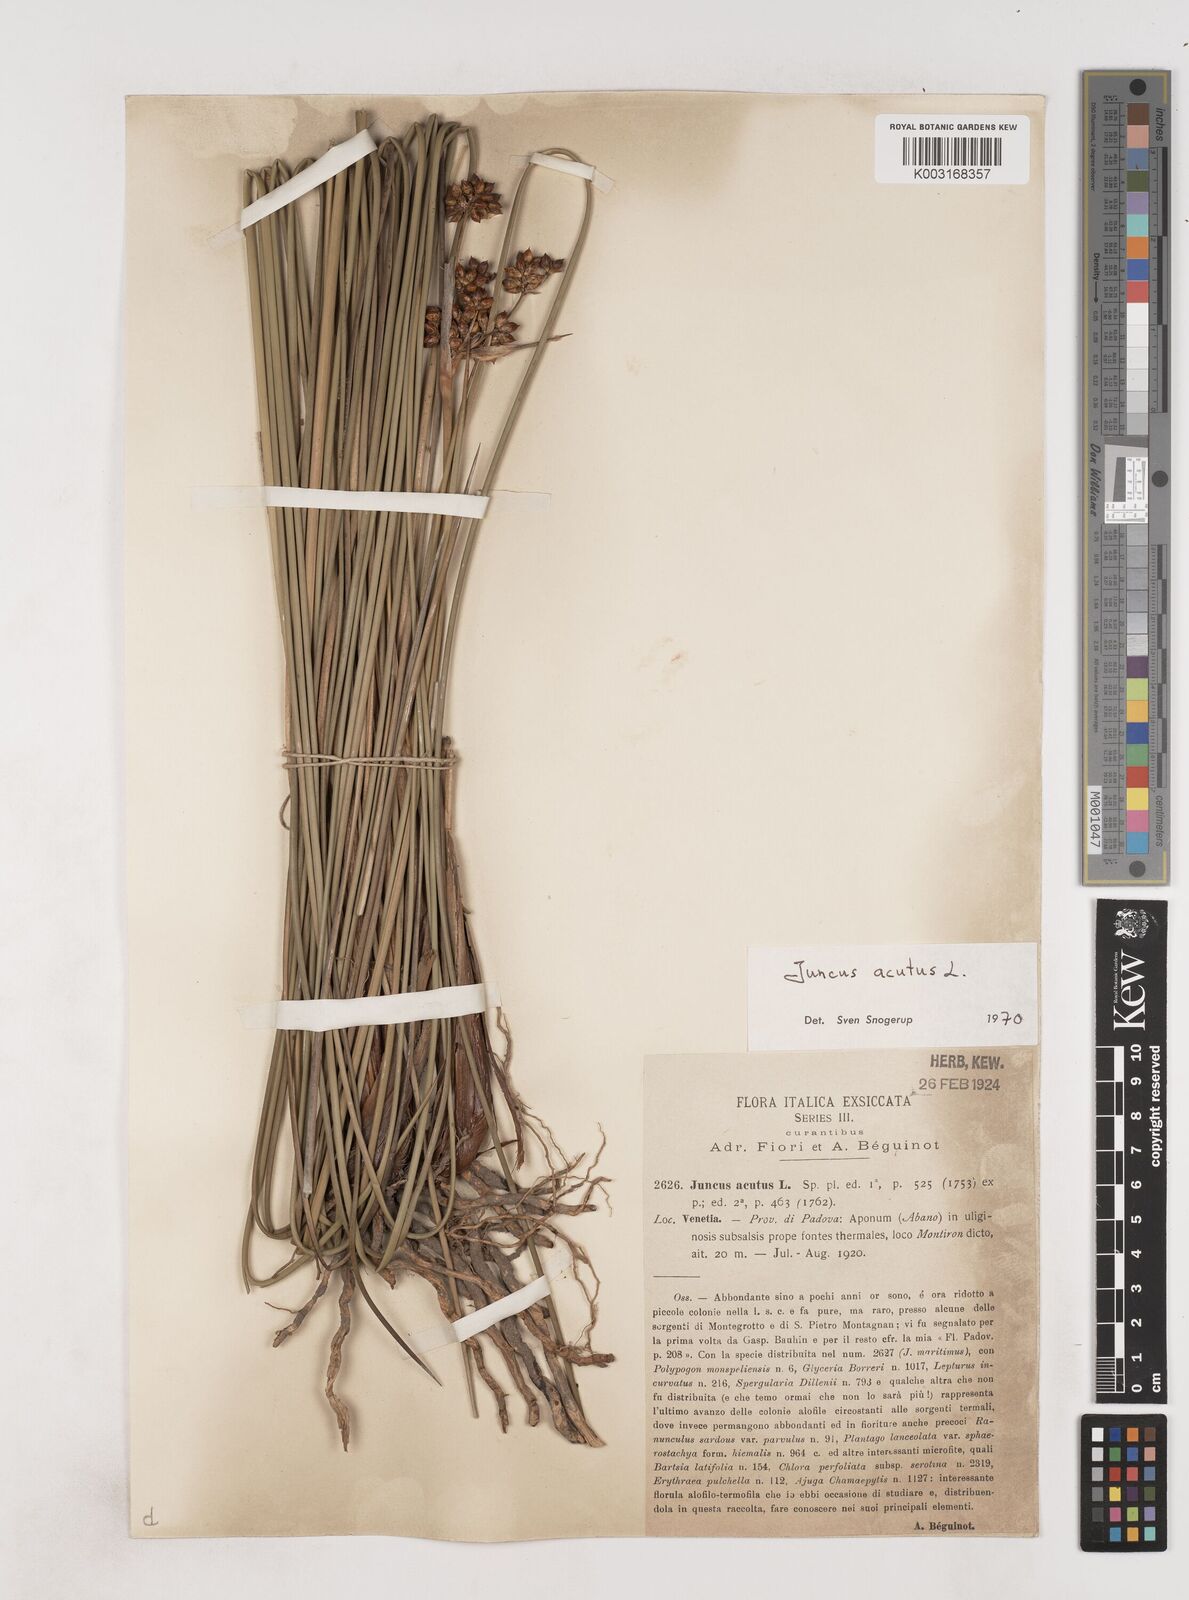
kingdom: Plantae
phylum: Tracheophyta
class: Liliopsida
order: Poales
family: Juncaceae
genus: Juncus
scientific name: Juncus acutus
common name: Sharp rush
